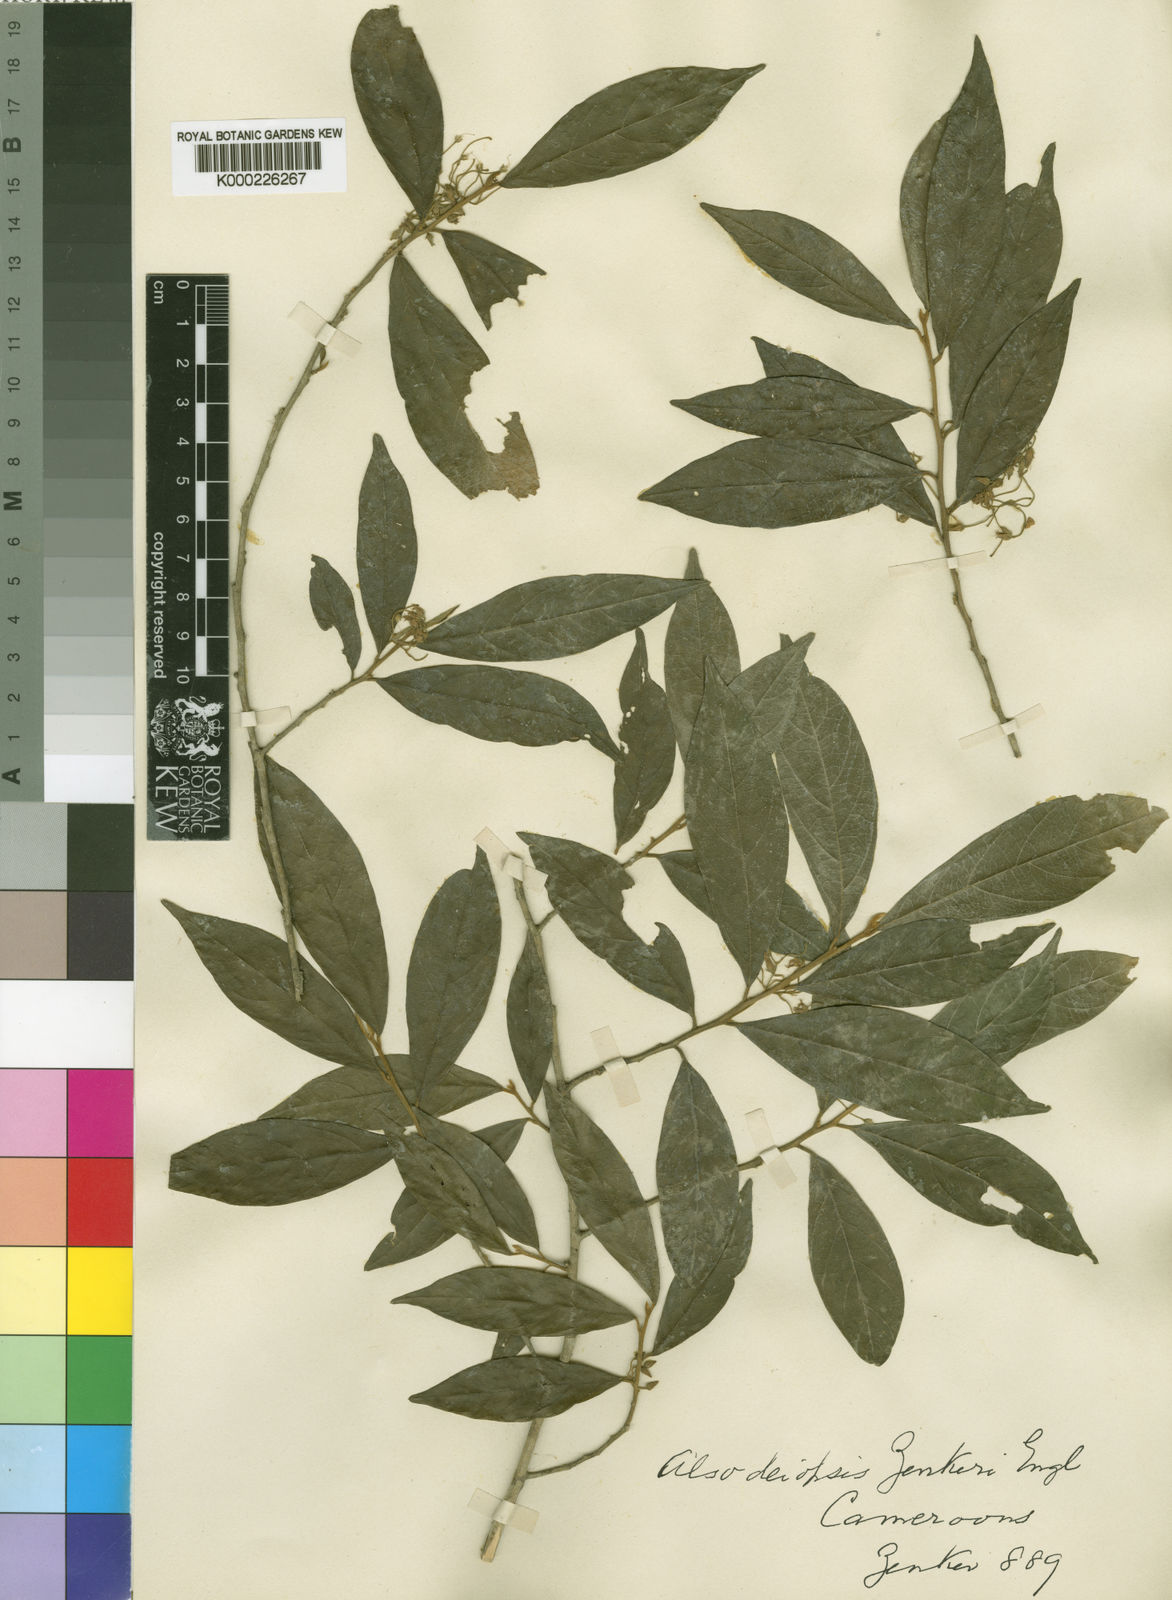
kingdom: Plantae
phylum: Tracheophyta
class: Magnoliopsida
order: Icacinales
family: Icacinaceae
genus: Alsodeiopsis
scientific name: Alsodeiopsis zenkeri
